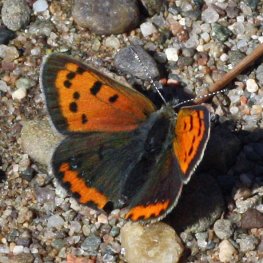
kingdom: Animalia
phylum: Arthropoda
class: Insecta
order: Lepidoptera
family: Lycaenidae
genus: Lycaena
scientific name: Lycaena phlaeas
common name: American Copper
